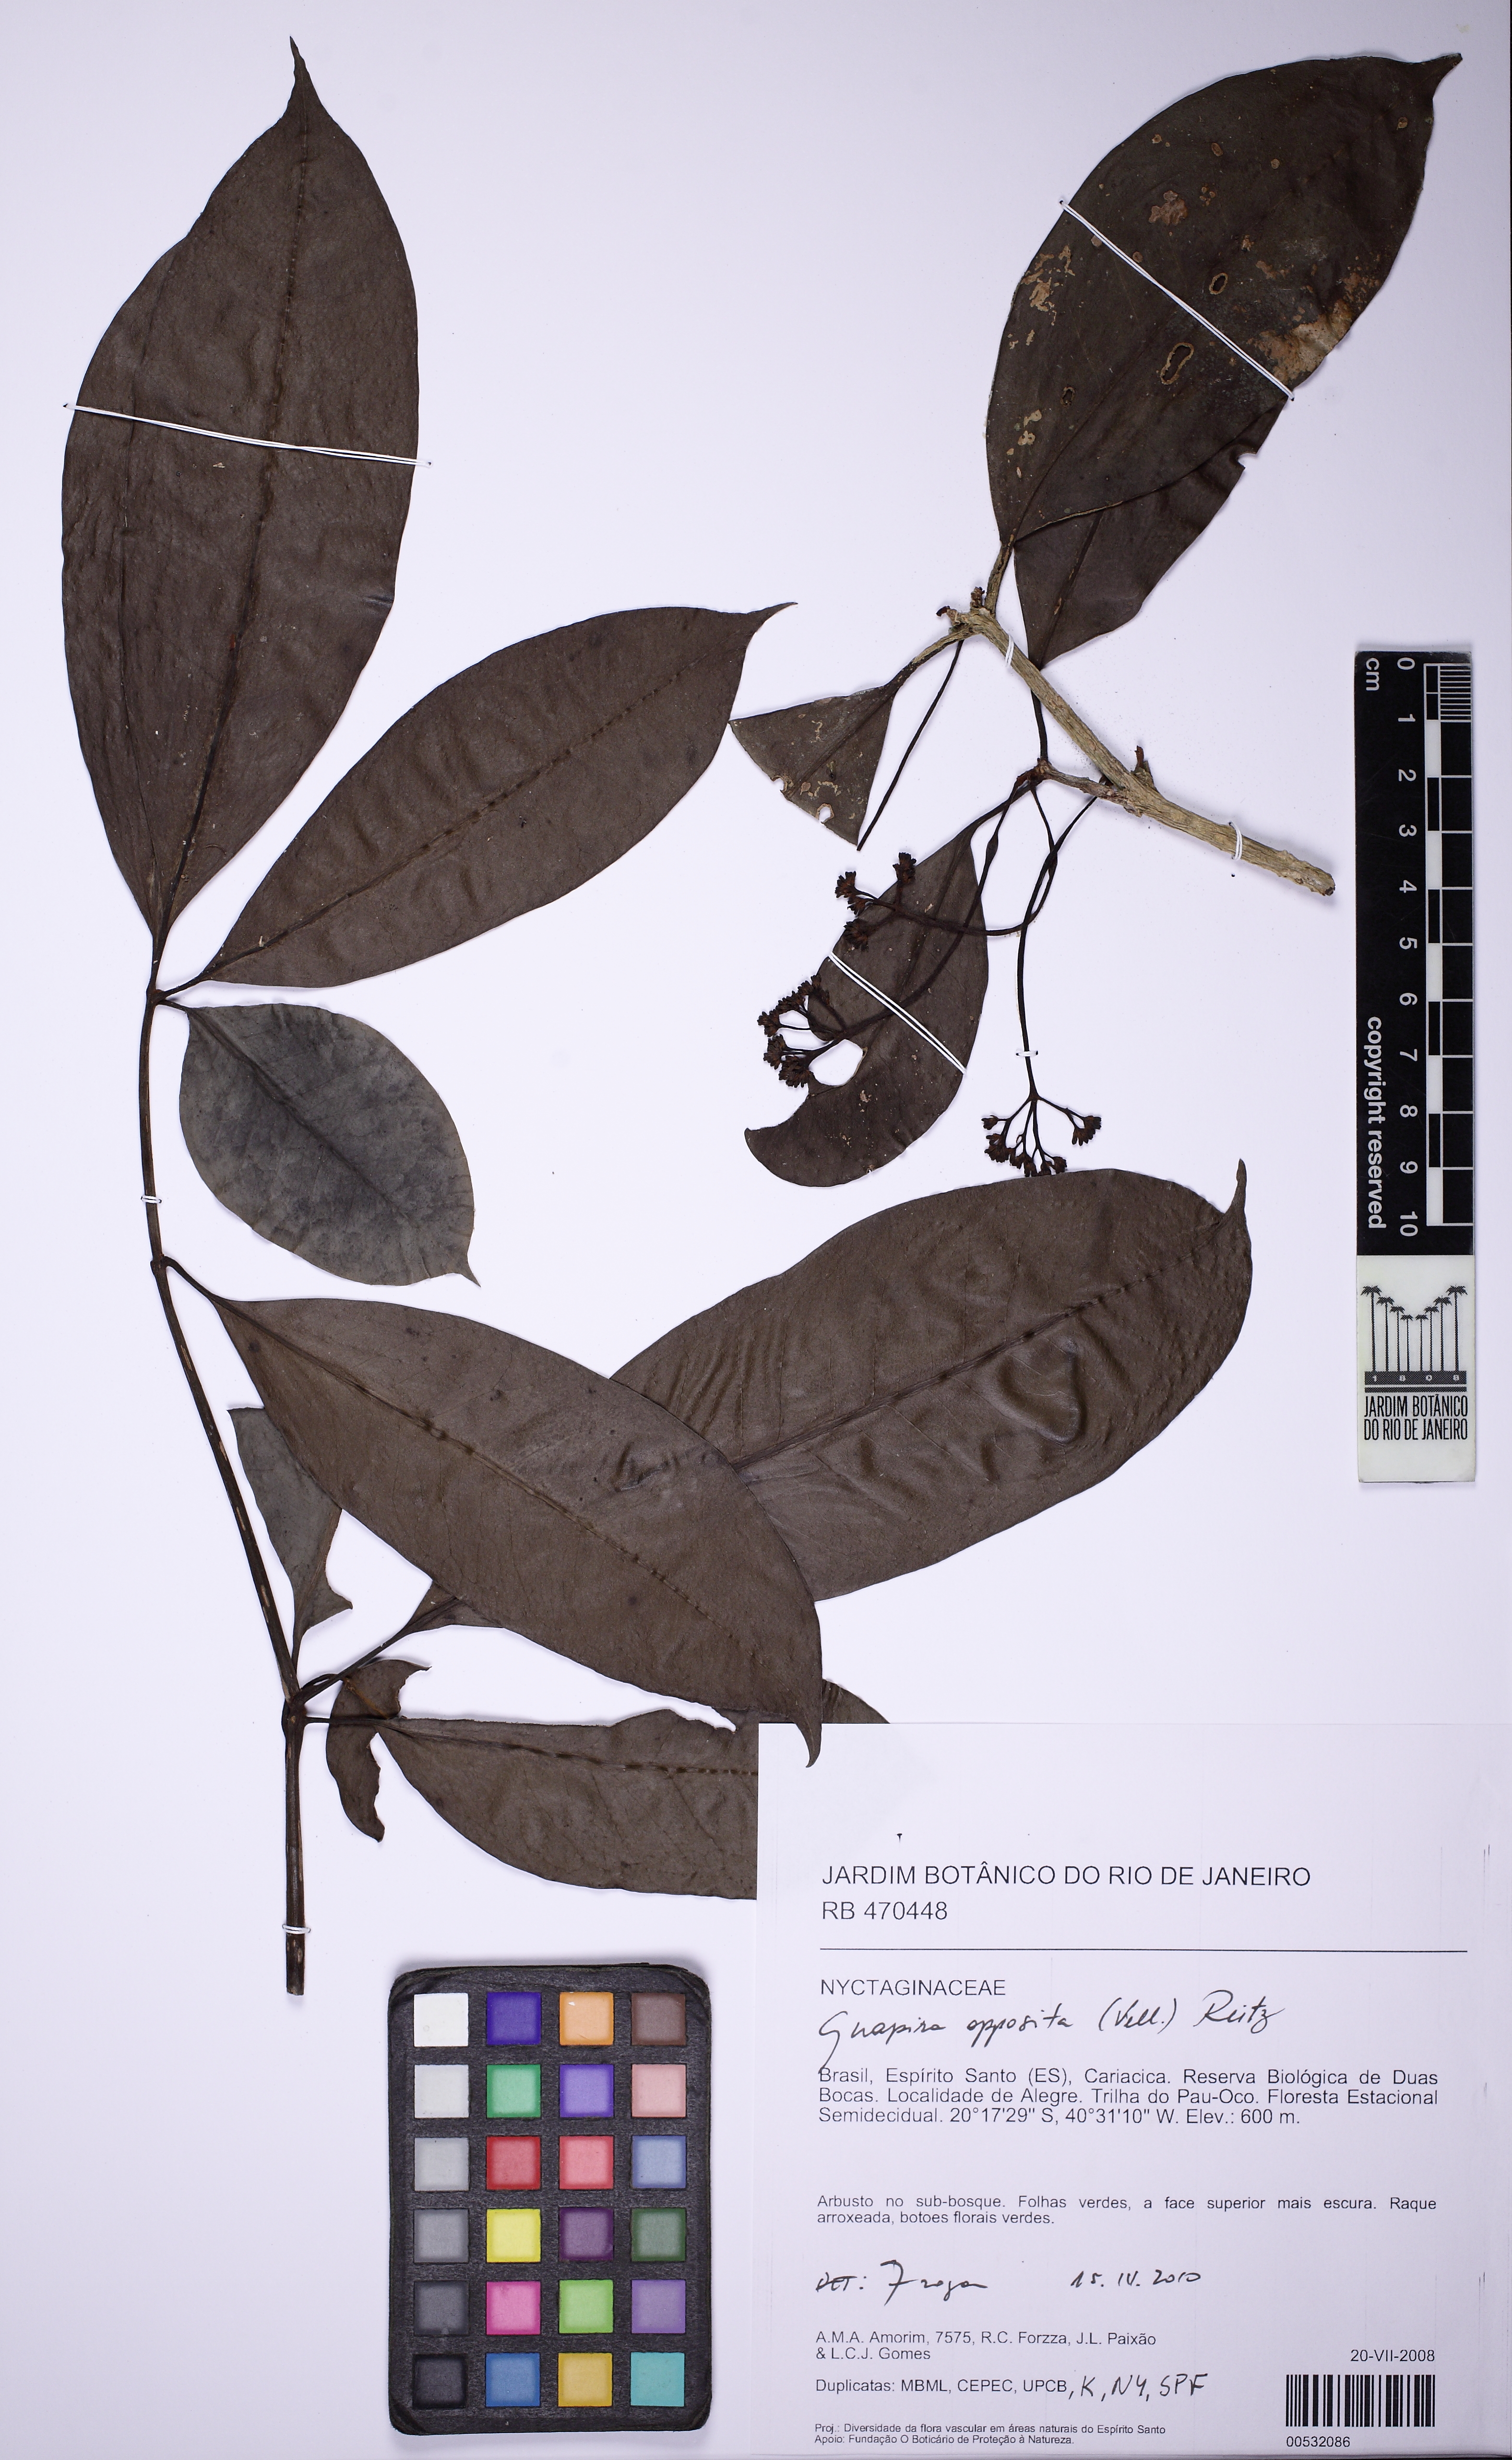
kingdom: Plantae
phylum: Tracheophyta
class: Magnoliopsida
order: Caryophyllales
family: Nyctaginaceae
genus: Guapira
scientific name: Guapira opposita
